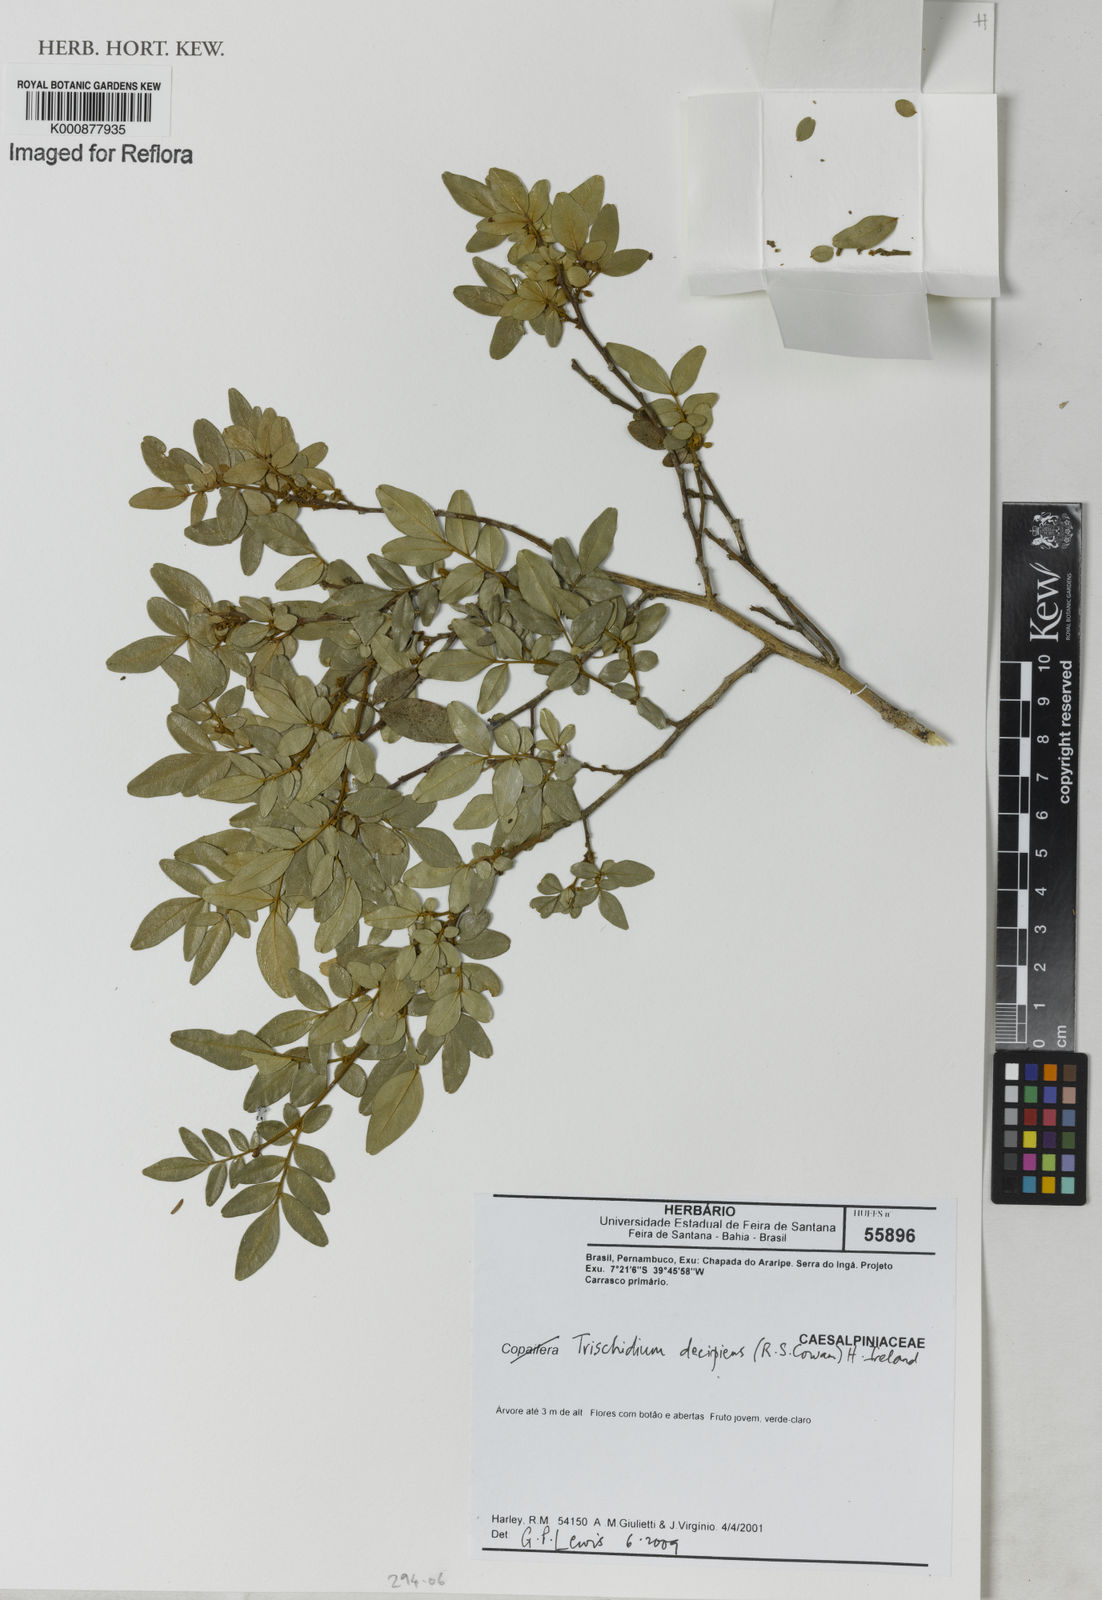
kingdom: Plantae
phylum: Tracheophyta
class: Magnoliopsida
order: Fabales
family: Fabaceae
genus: Trischidium
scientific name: Trischidium decipiens
